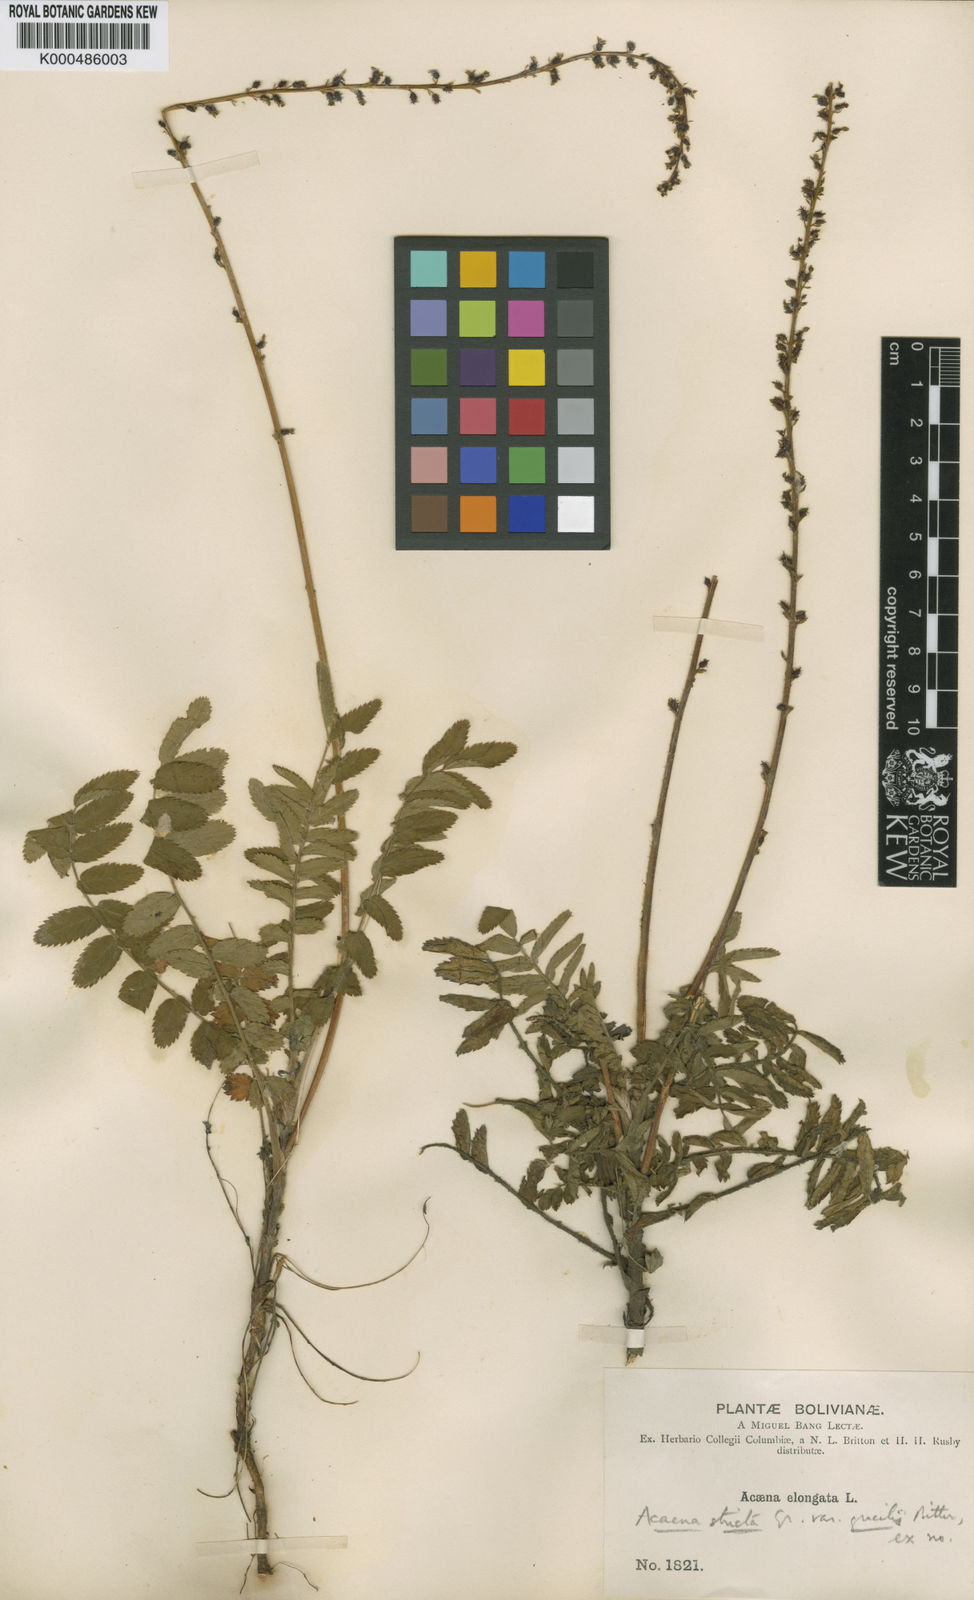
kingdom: Plantae
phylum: Tracheophyta
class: Magnoliopsida
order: Rosales
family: Rosaceae
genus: Acaena
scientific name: Acaena stricta
